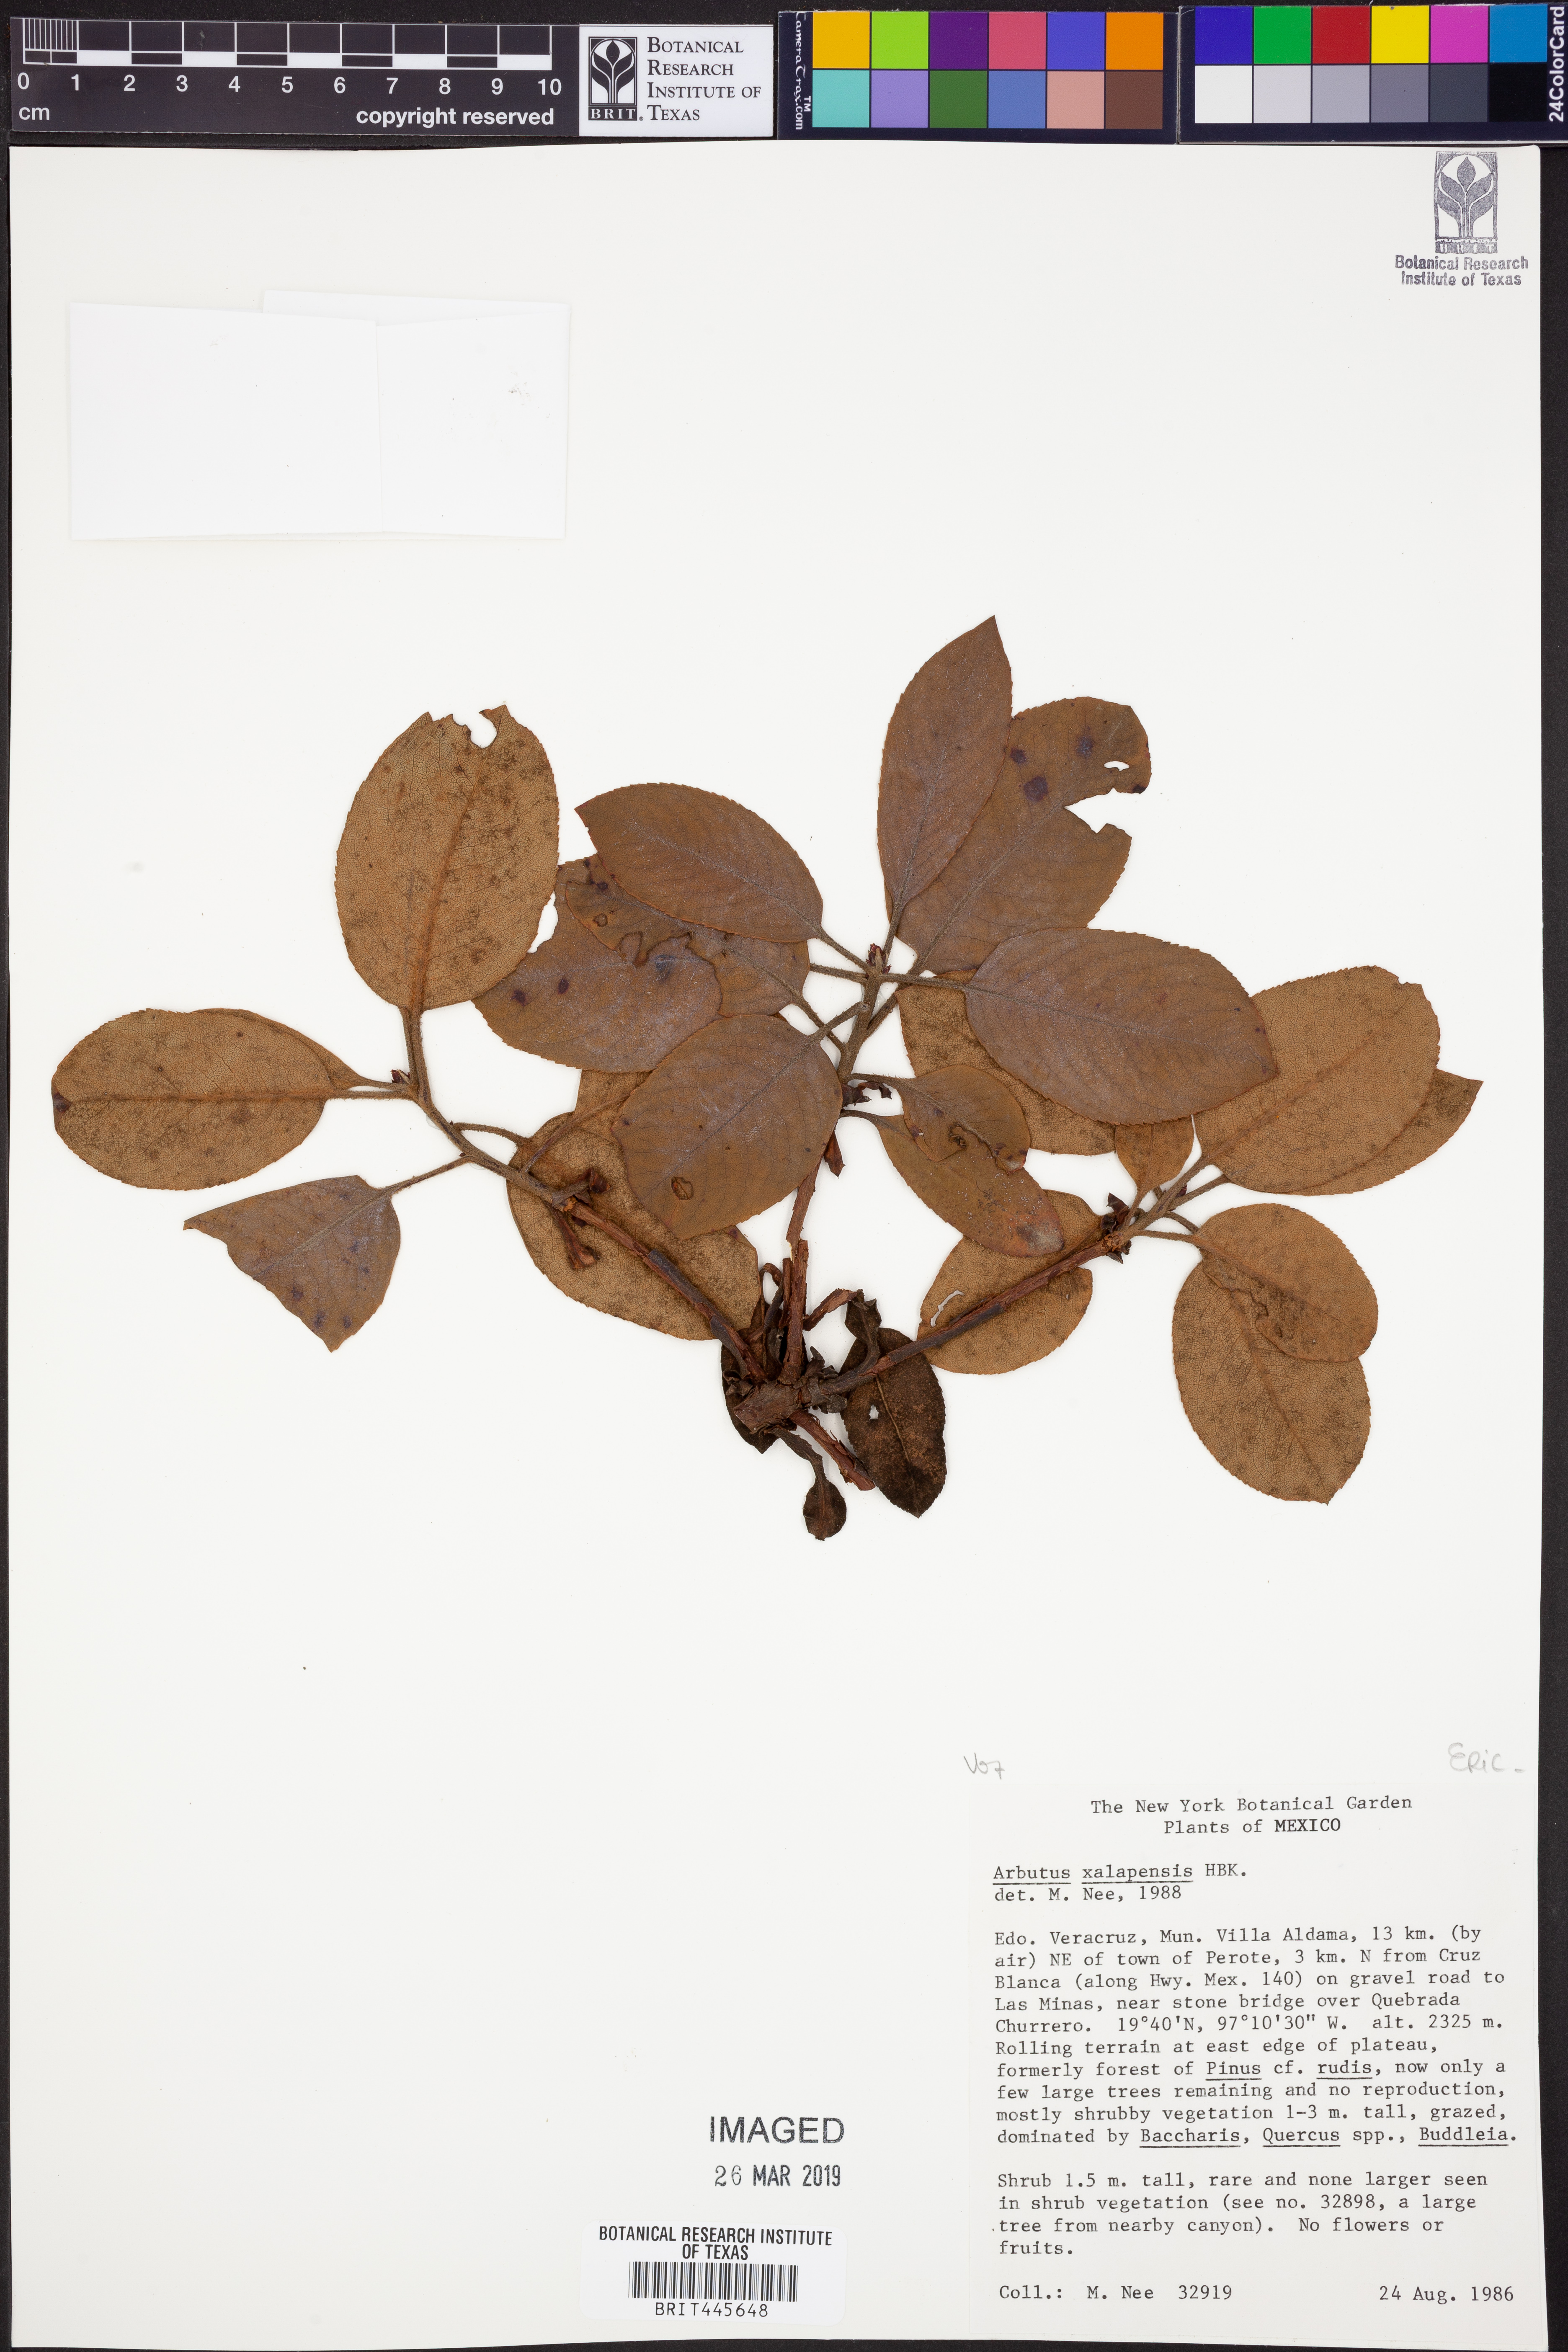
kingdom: Plantae
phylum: Tracheophyta
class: Magnoliopsida
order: Ericales
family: Ericaceae
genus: Arbutus
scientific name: Arbutus xalapensis
